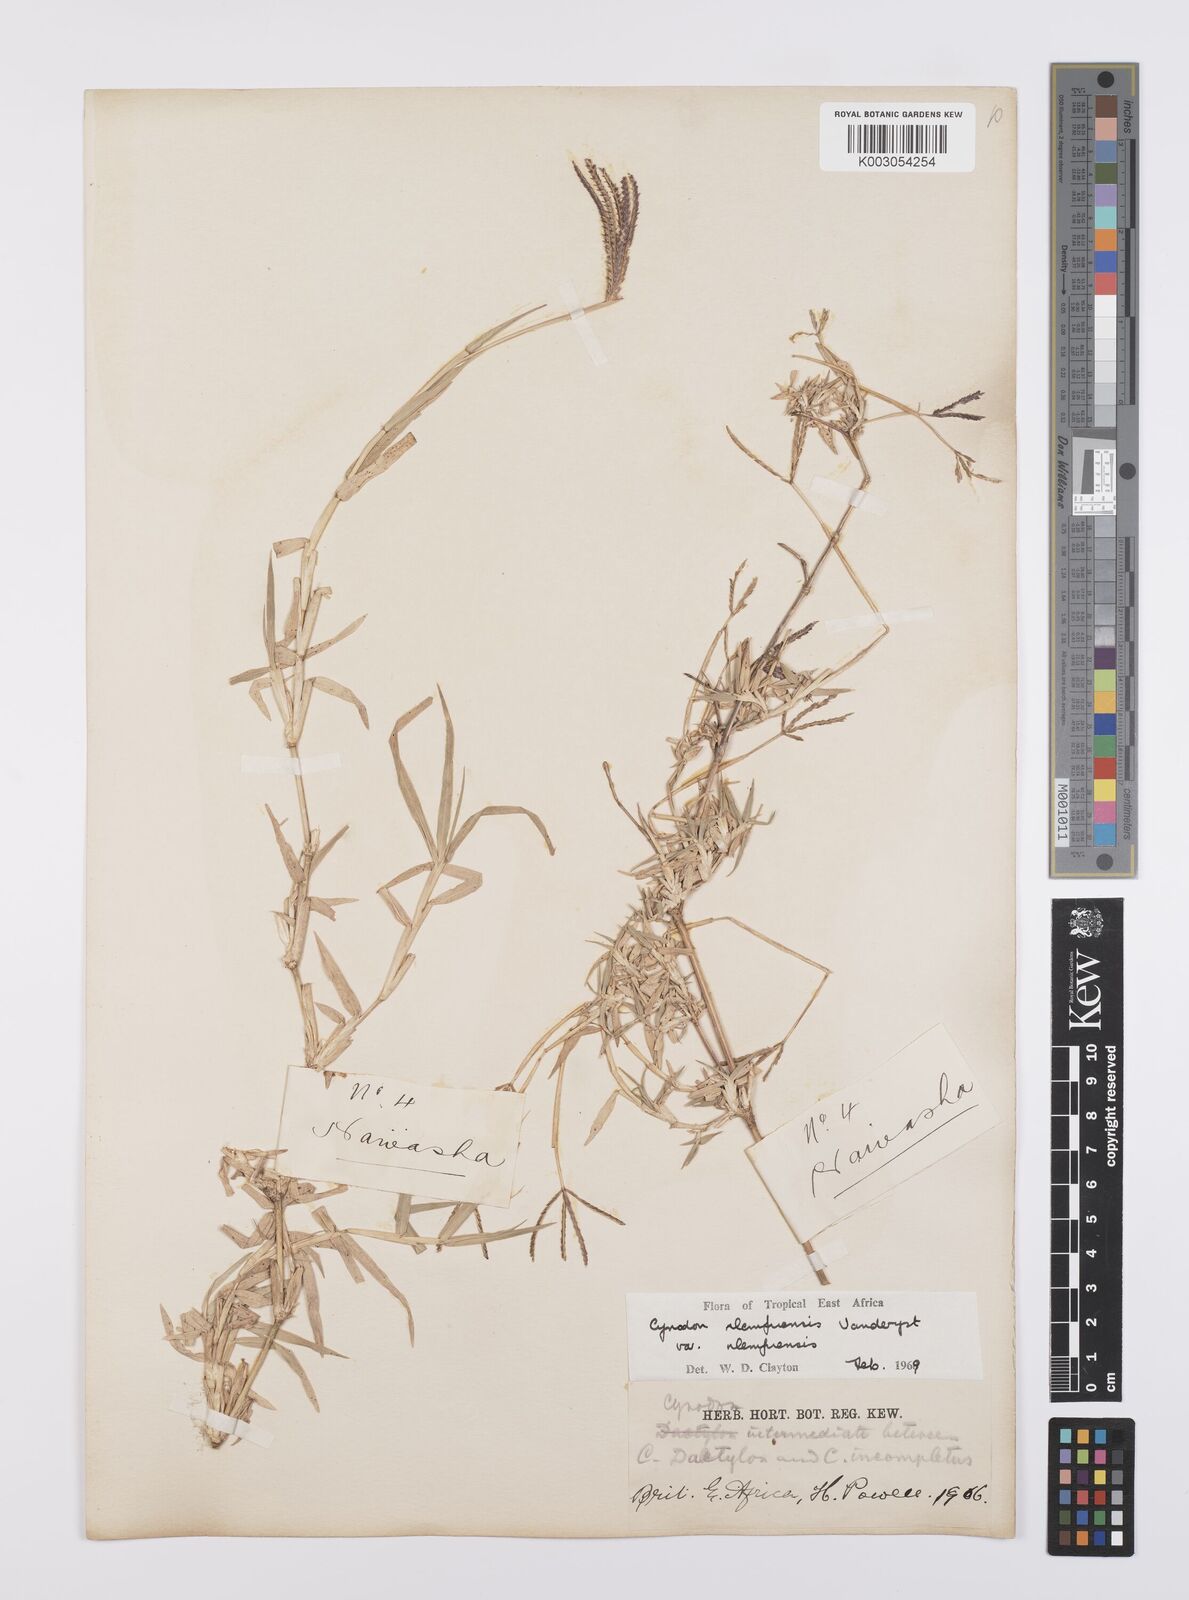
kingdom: Plantae
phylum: Tracheophyta
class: Liliopsida
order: Poales
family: Poaceae
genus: Cynodon
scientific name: Cynodon nlemfuensis
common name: African bermudagrass
